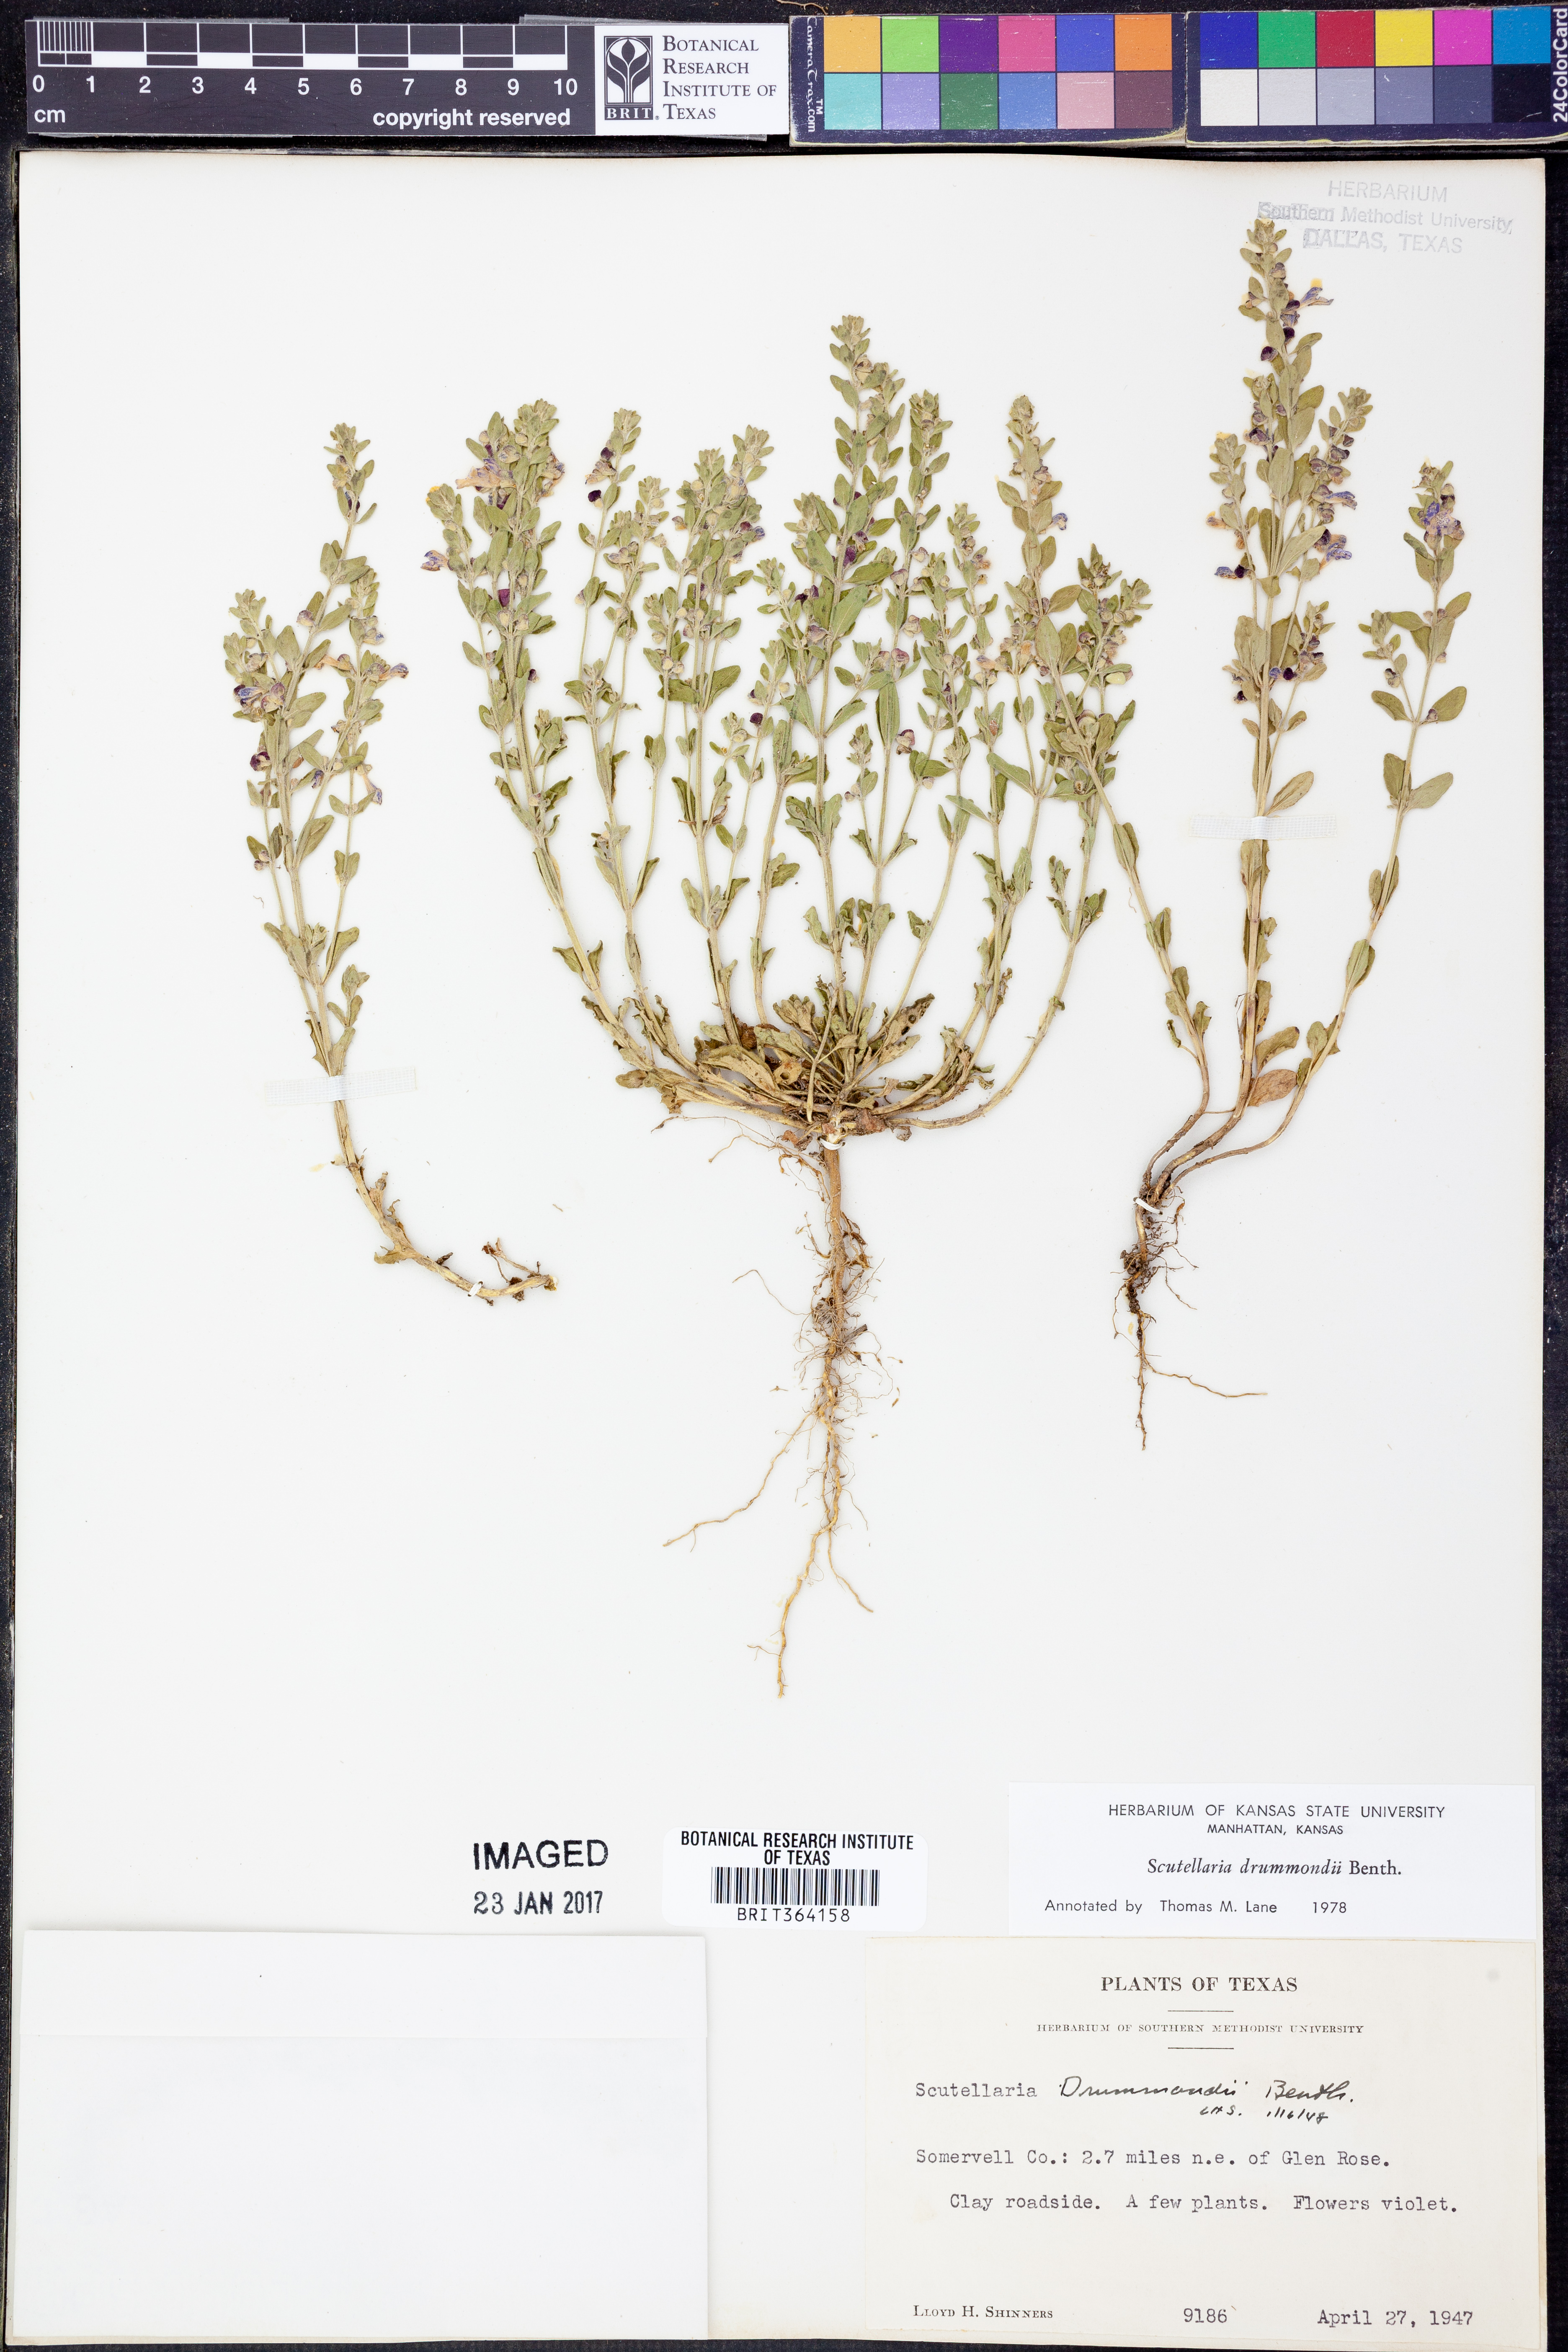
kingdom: Plantae
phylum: Tracheophyta
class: Magnoliopsida
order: Lamiales
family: Lamiaceae
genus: Scutellaria
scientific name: Scutellaria drummondii
